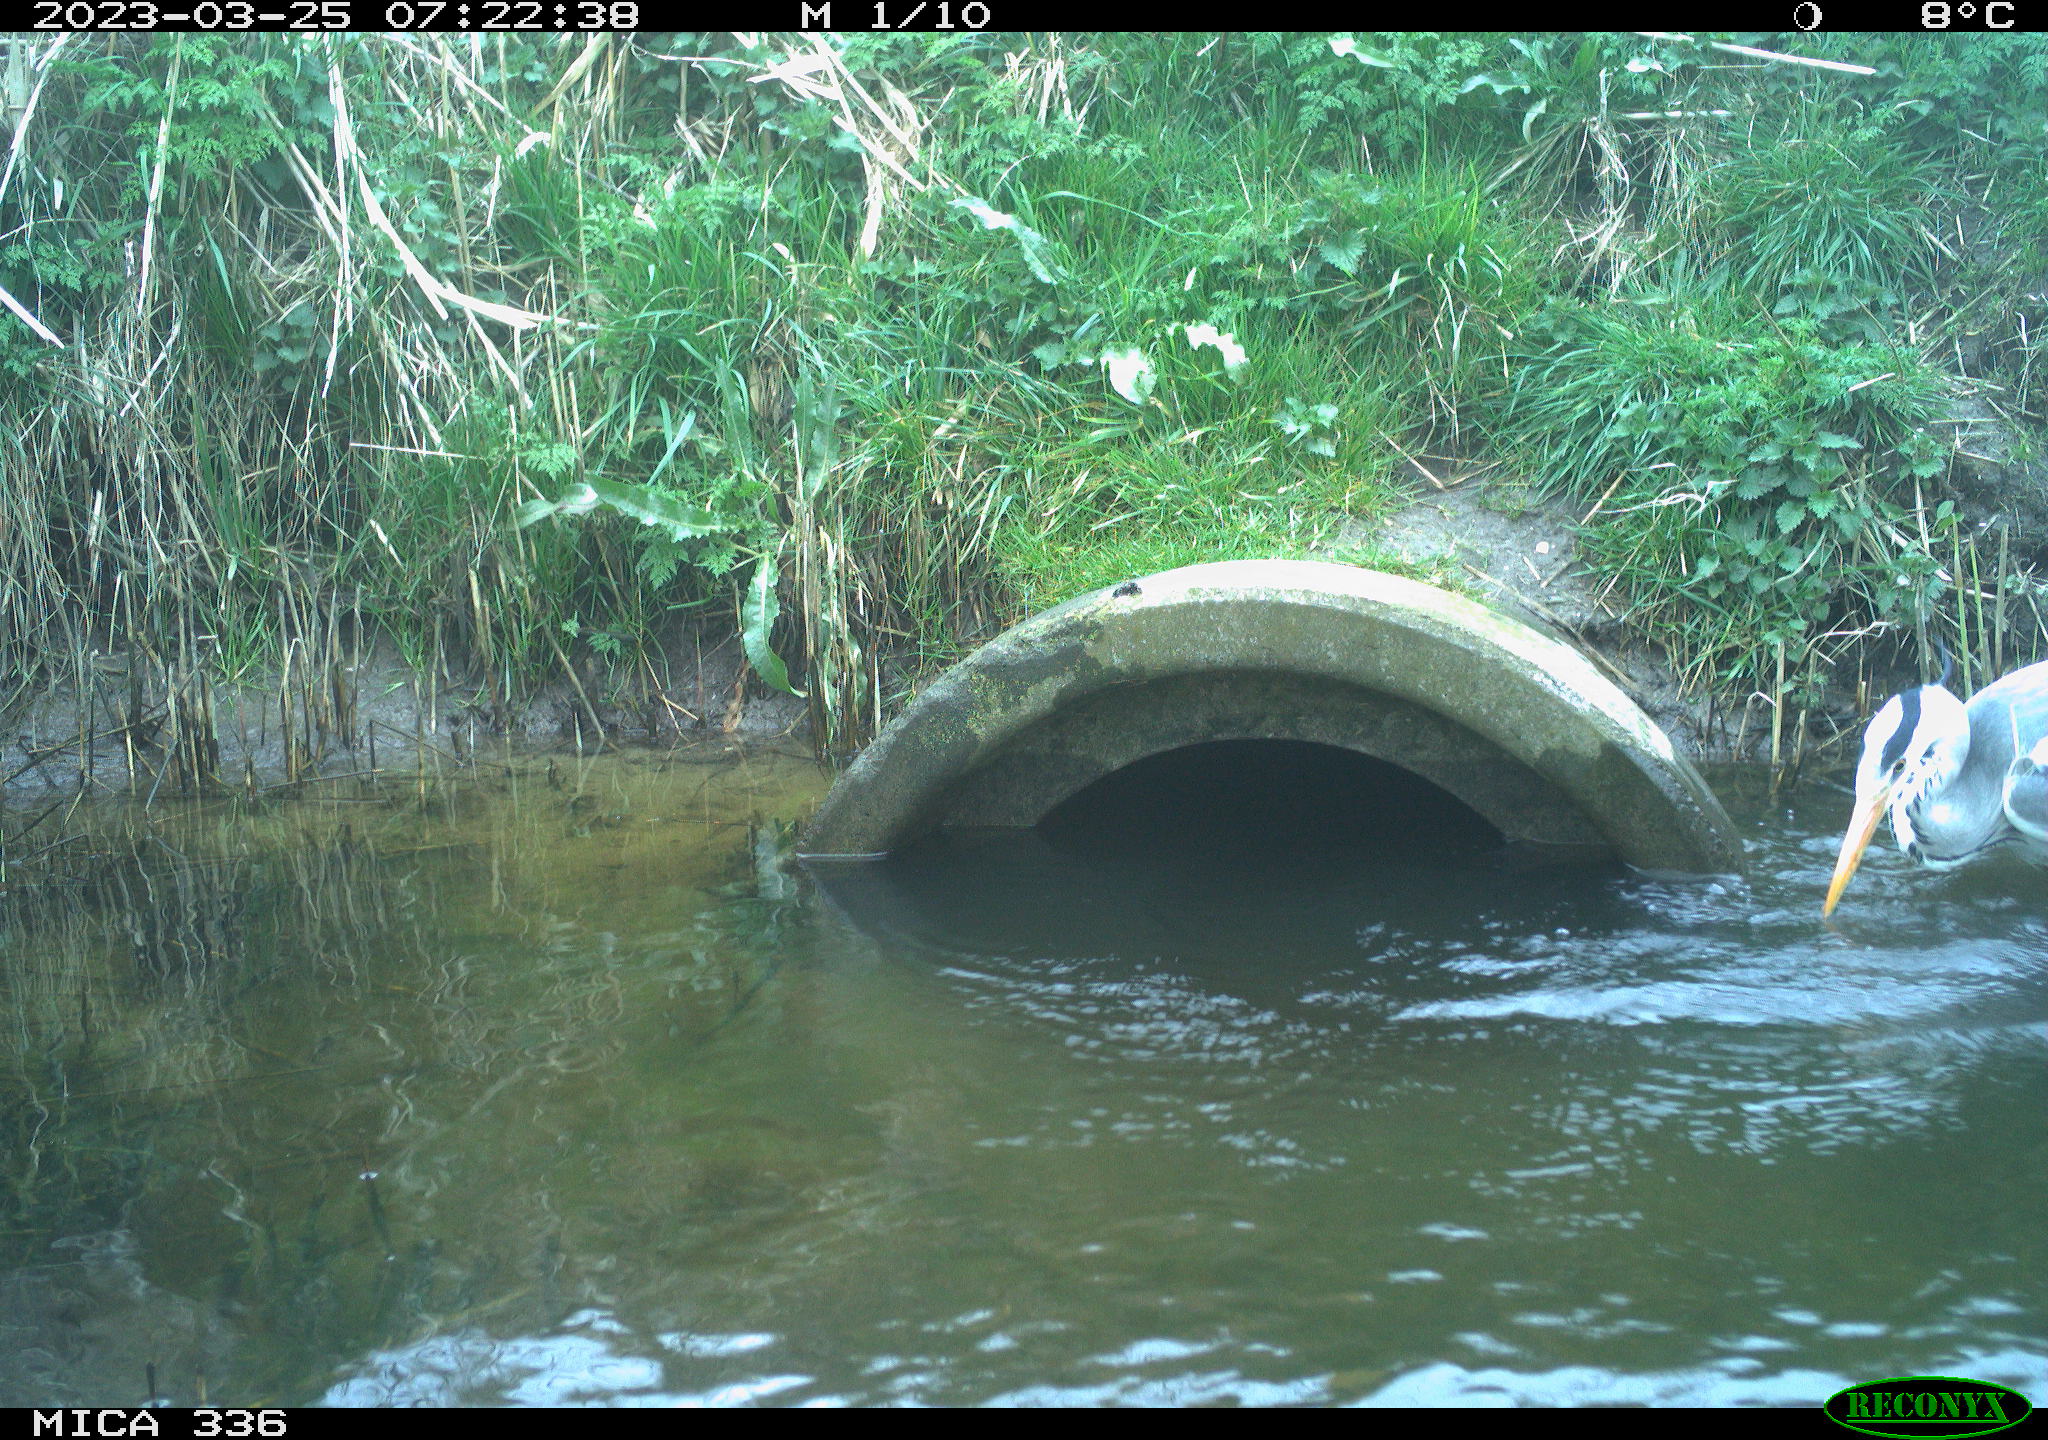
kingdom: Animalia
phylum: Chordata
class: Aves
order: Pelecaniformes
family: Ardeidae
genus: Ardea
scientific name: Ardea
